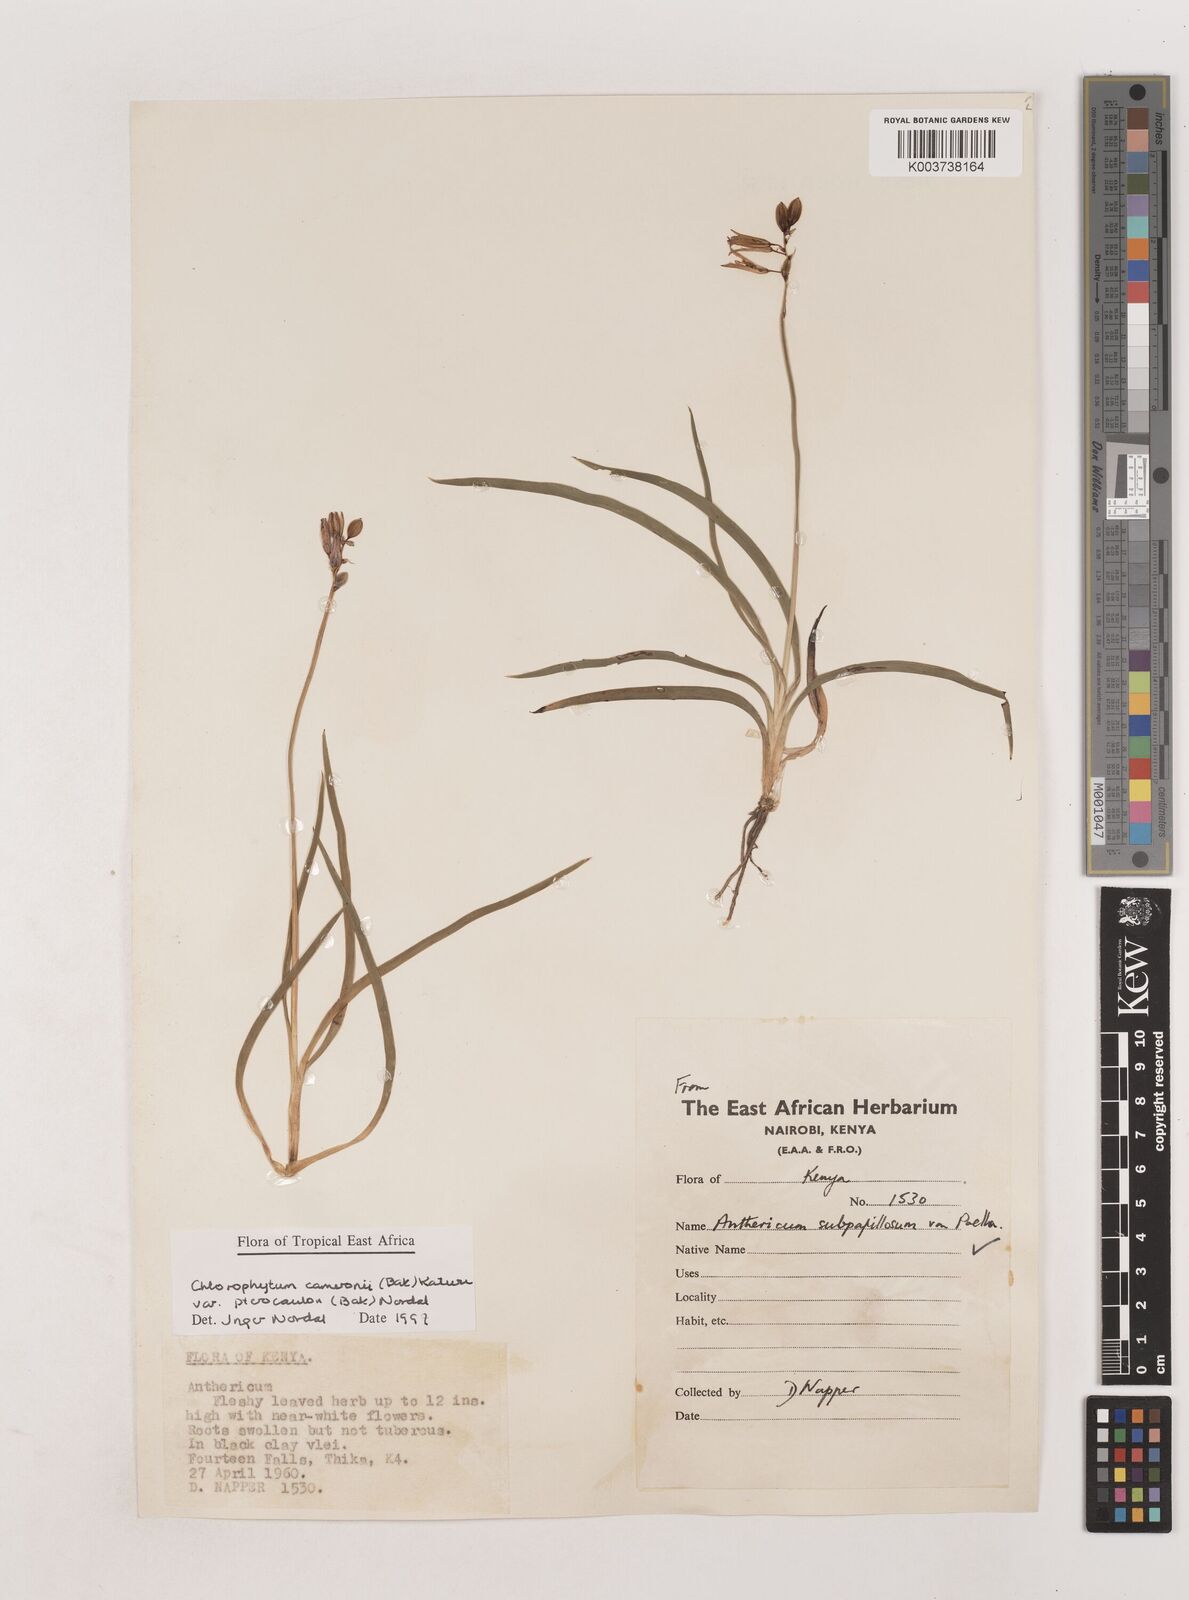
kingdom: Plantae
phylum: Tracheophyta
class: Liliopsida
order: Asparagales
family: Asparagaceae
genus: Chlorophytum
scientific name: Chlorophytum cameronii
